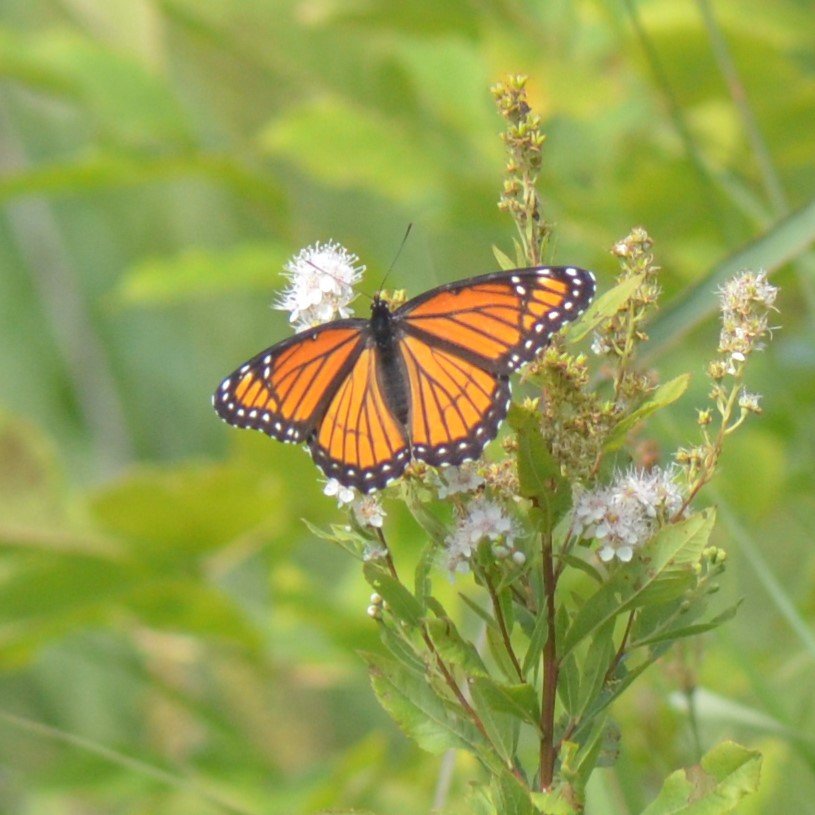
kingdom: Animalia
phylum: Arthropoda
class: Insecta
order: Lepidoptera
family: Nymphalidae
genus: Limenitis
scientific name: Limenitis archippus
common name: Viceroy
